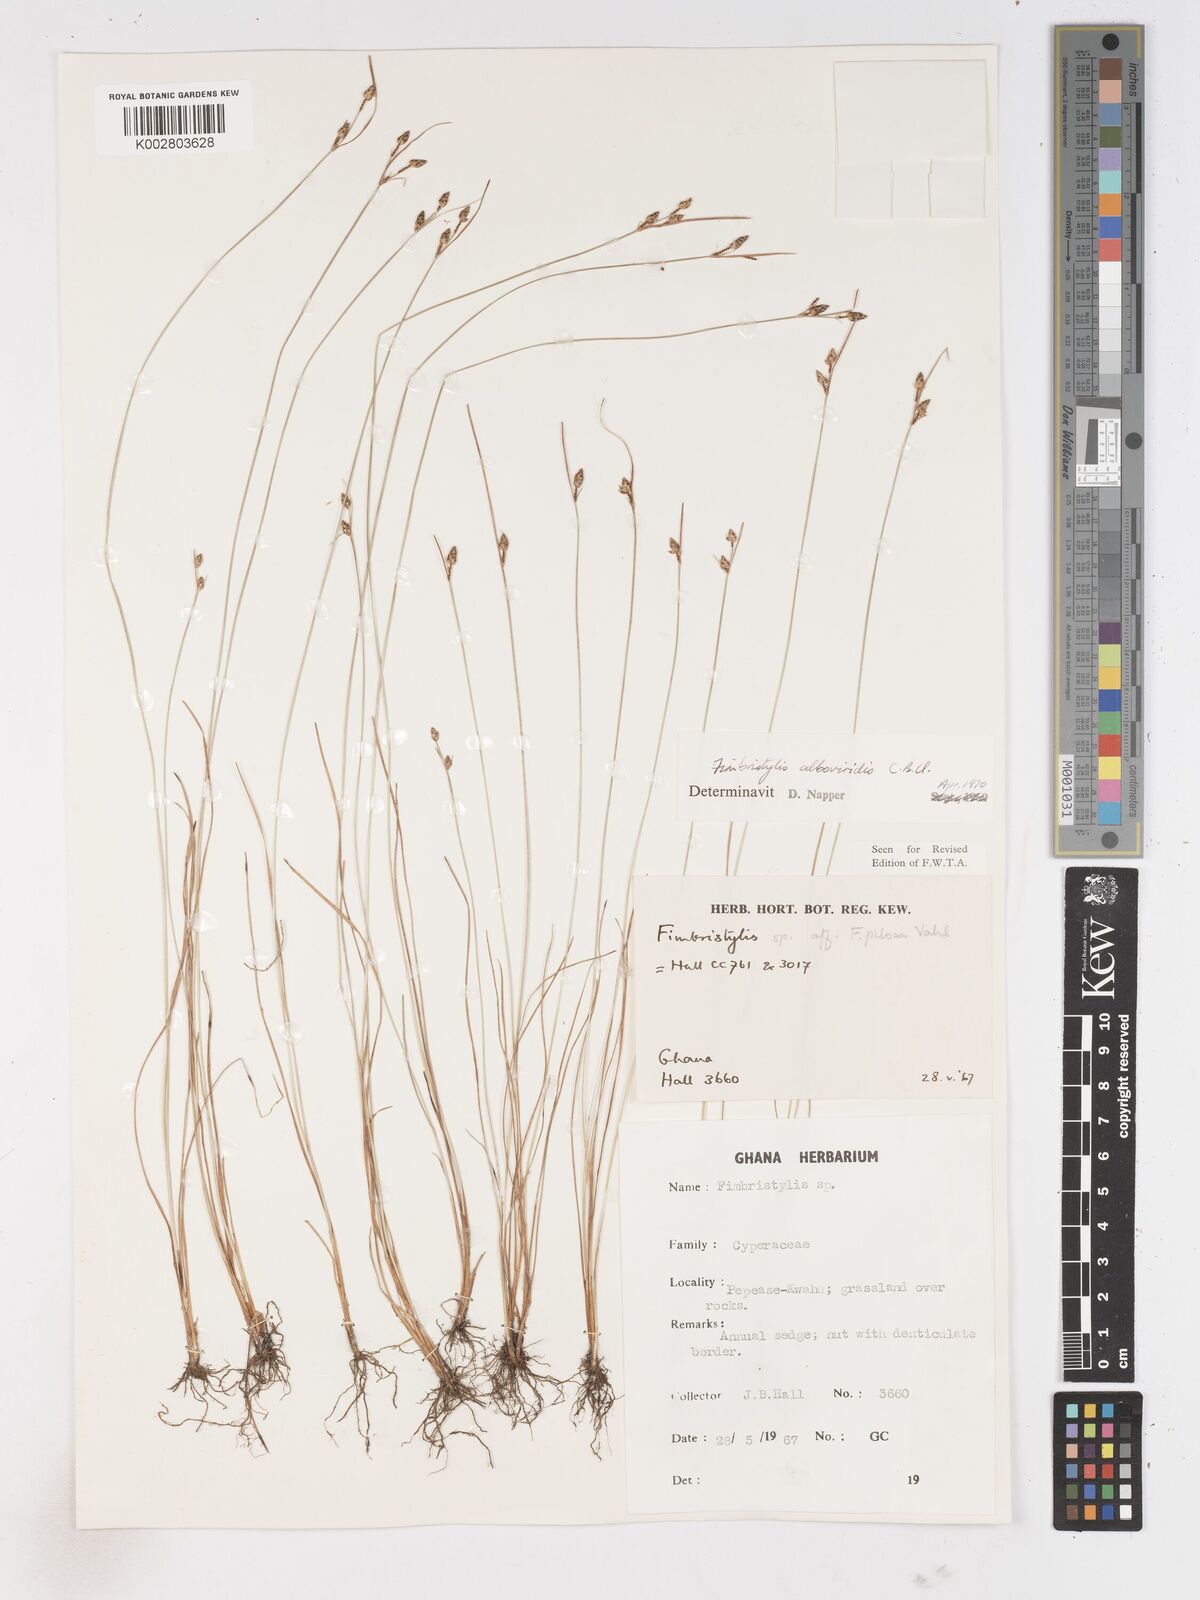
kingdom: Plantae
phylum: Tracheophyta
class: Liliopsida
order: Poales
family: Cyperaceae
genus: Fimbristylis
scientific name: Fimbristylis alboviridis
